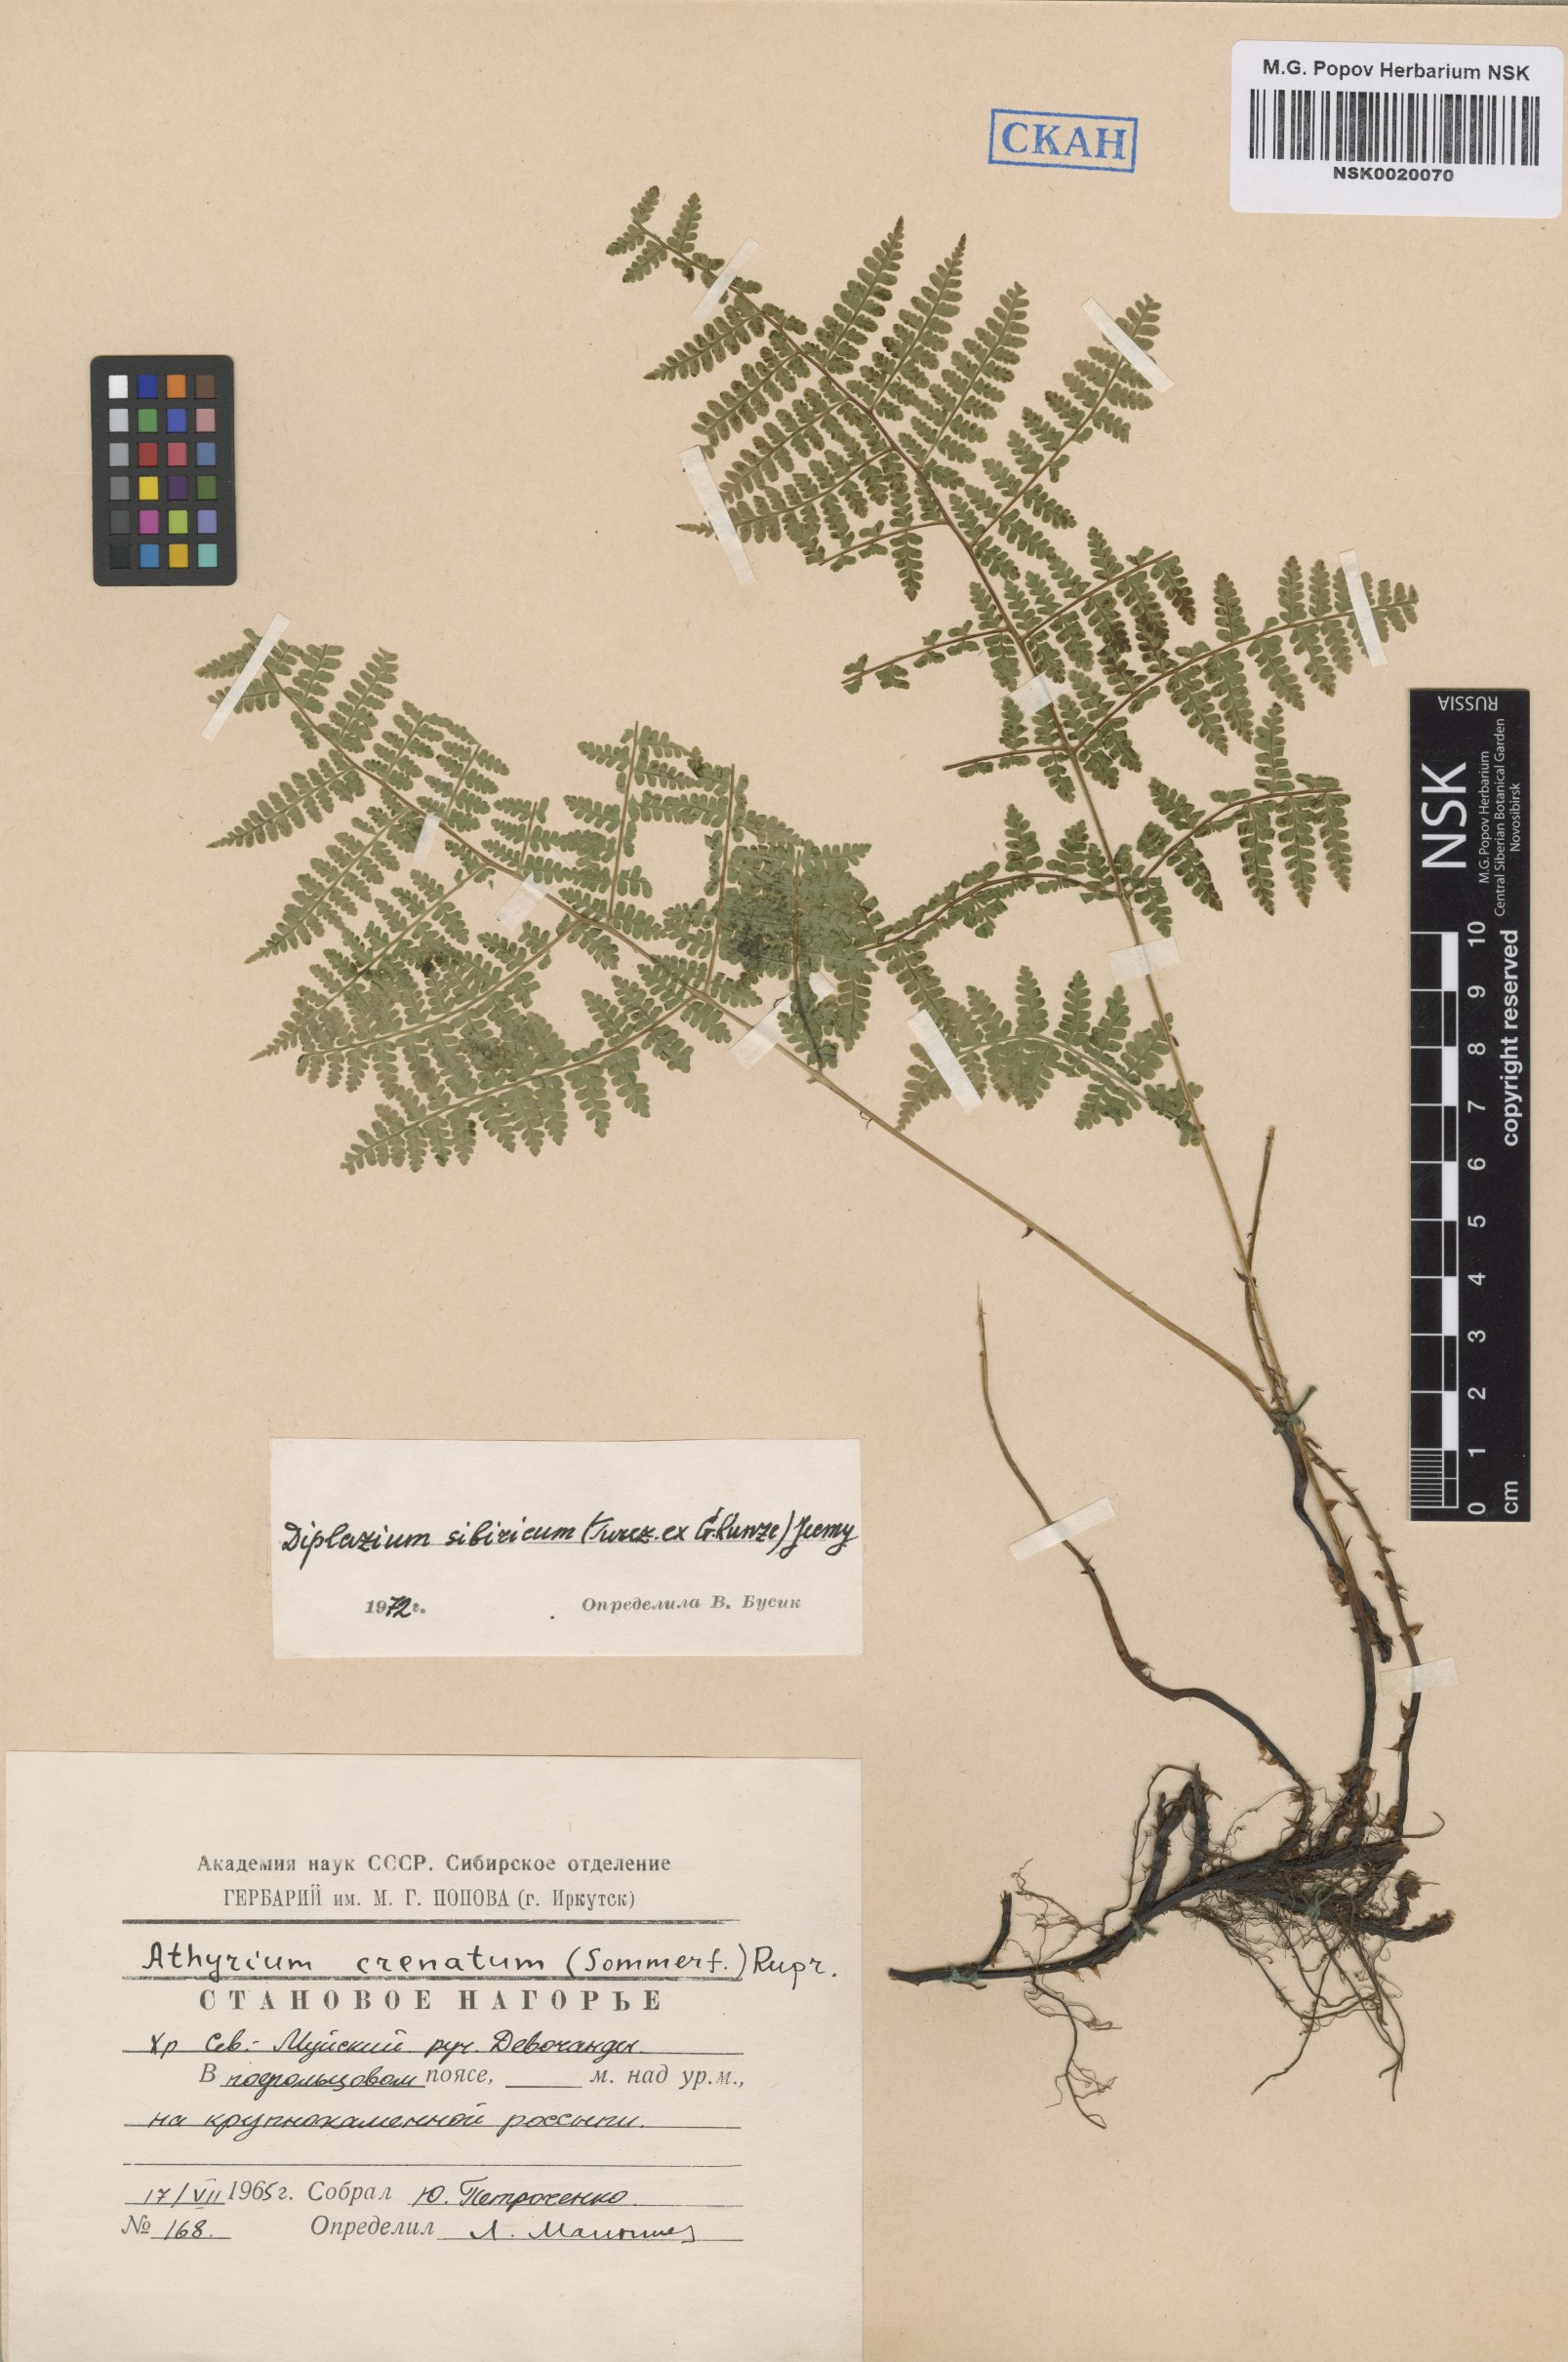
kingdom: Plantae
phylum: Tracheophyta
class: Polypodiopsida
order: Polypodiales
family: Athyriaceae
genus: Diplazium
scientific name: Diplazium sibiricum
